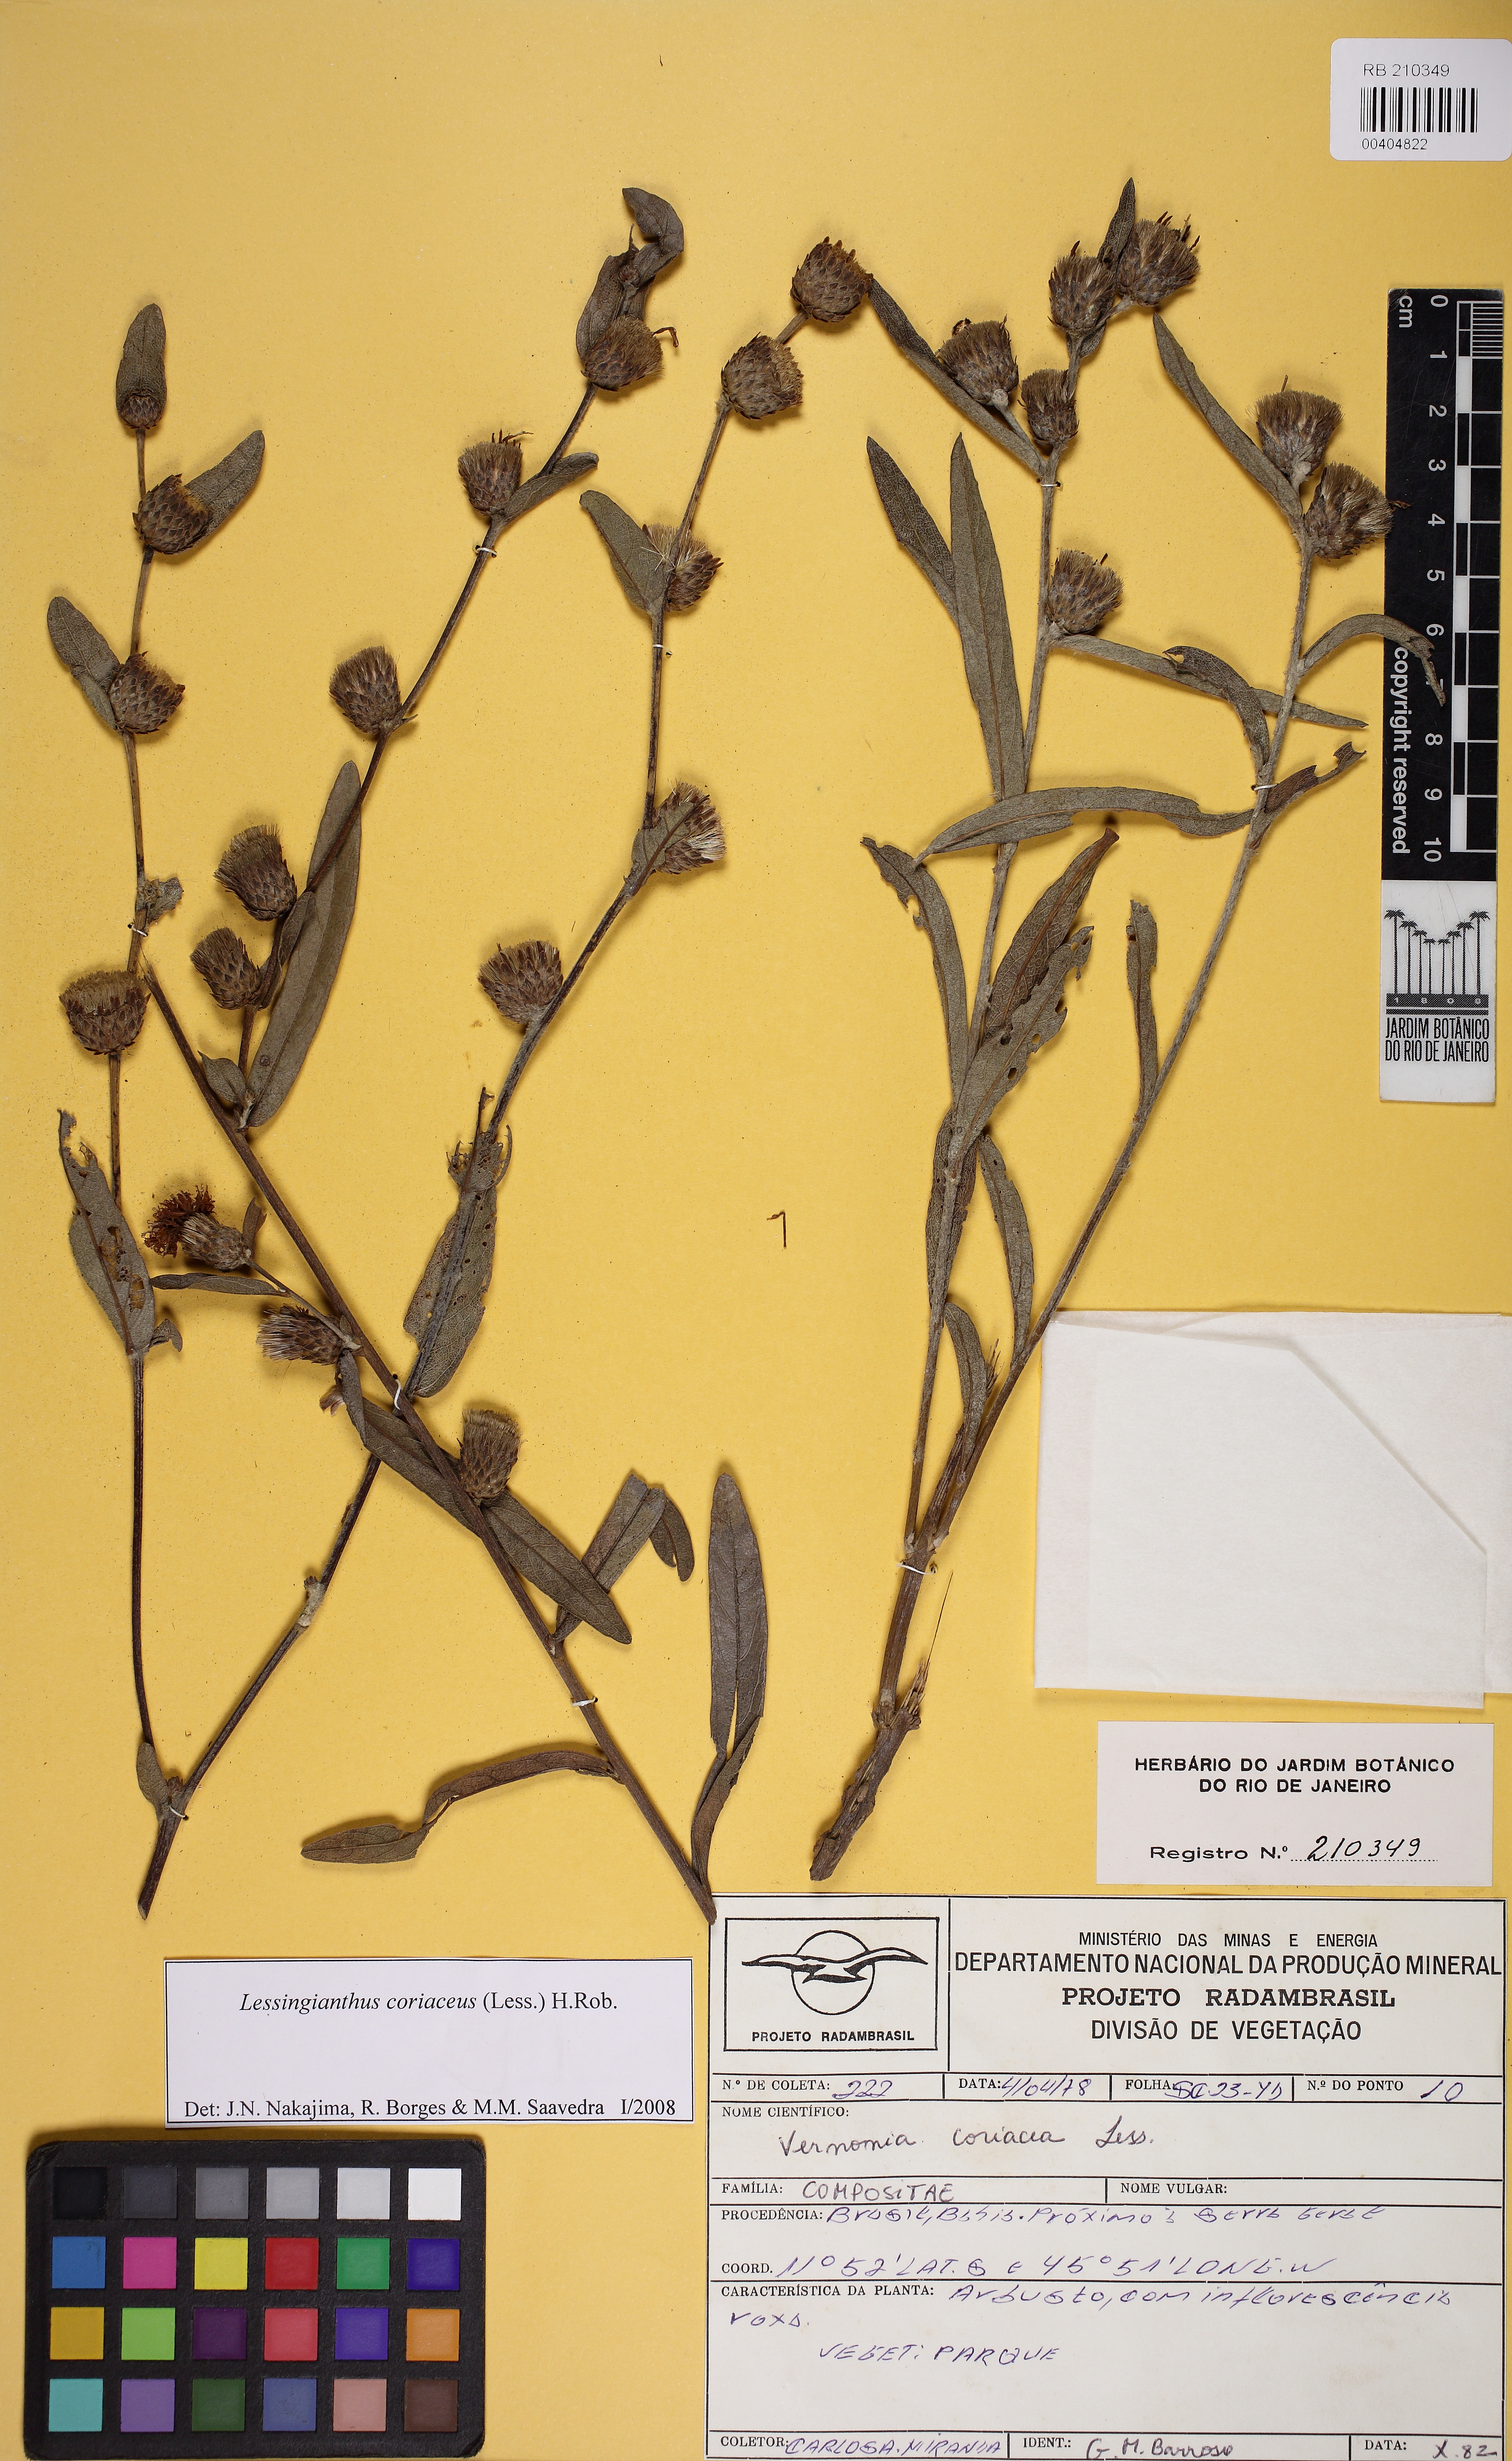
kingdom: Plantae
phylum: Tracheophyta
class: Magnoliopsida
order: Asterales
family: Asteraceae
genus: Lessingianthus
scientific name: Lessingianthus coriaceus
